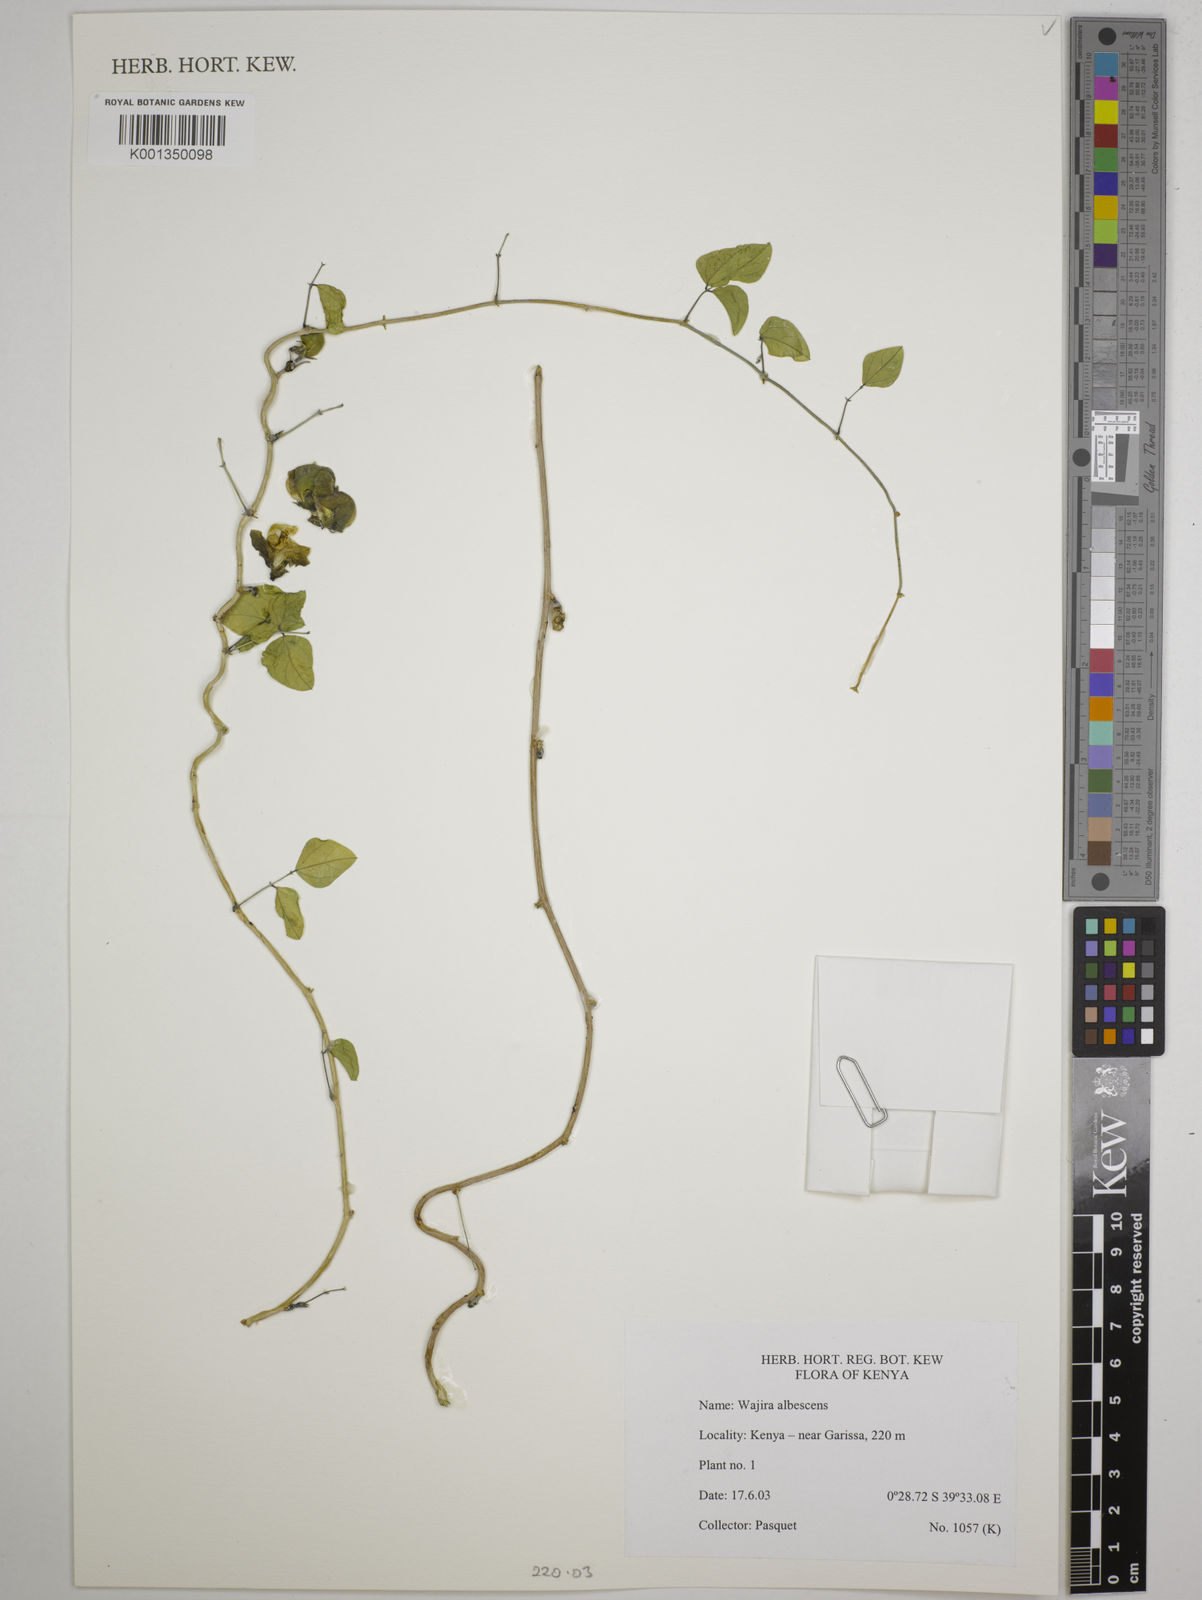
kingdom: Plantae
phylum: Tracheophyta
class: Magnoliopsida
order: Fabales
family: Fabaceae
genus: Wajira
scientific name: Wajira albescens
